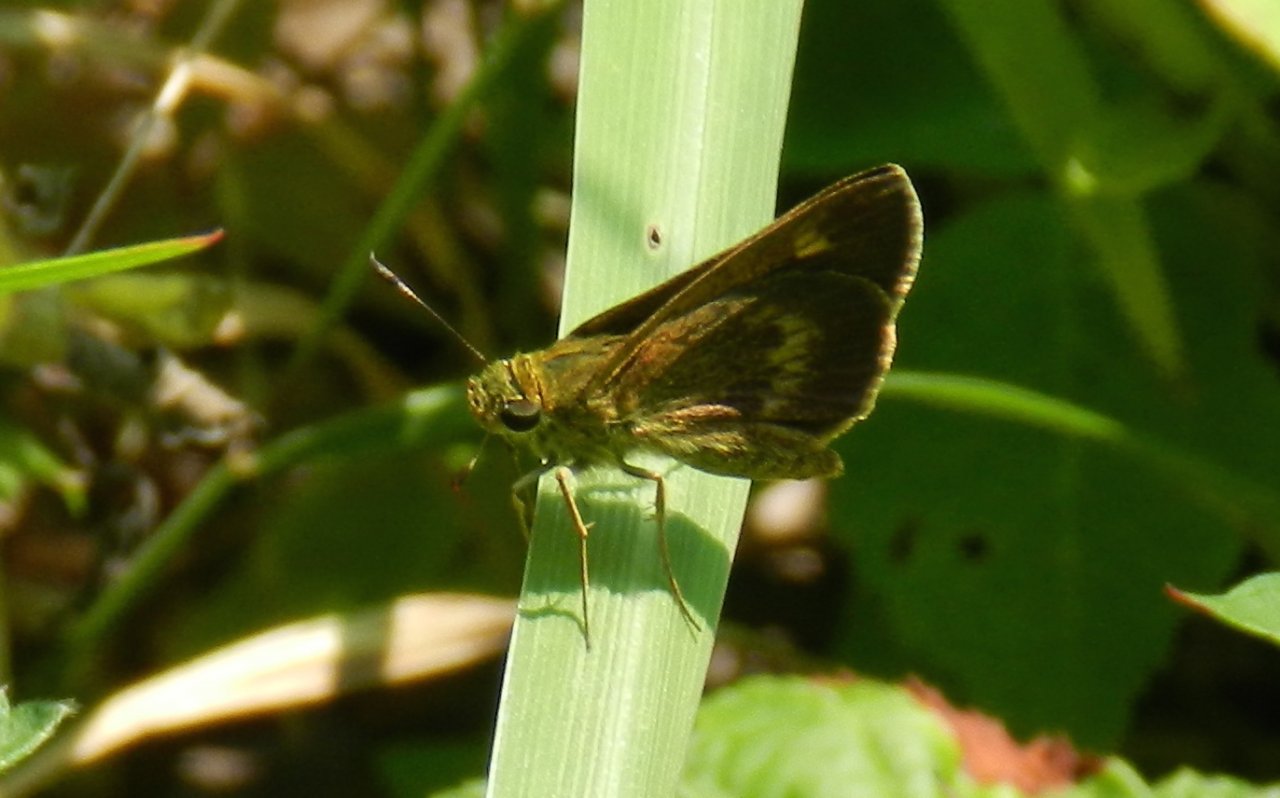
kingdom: Animalia
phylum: Arthropoda
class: Insecta
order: Lepidoptera
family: Hesperiidae
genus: Polites
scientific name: Polites egeremet
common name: Northern Broken-Dash
